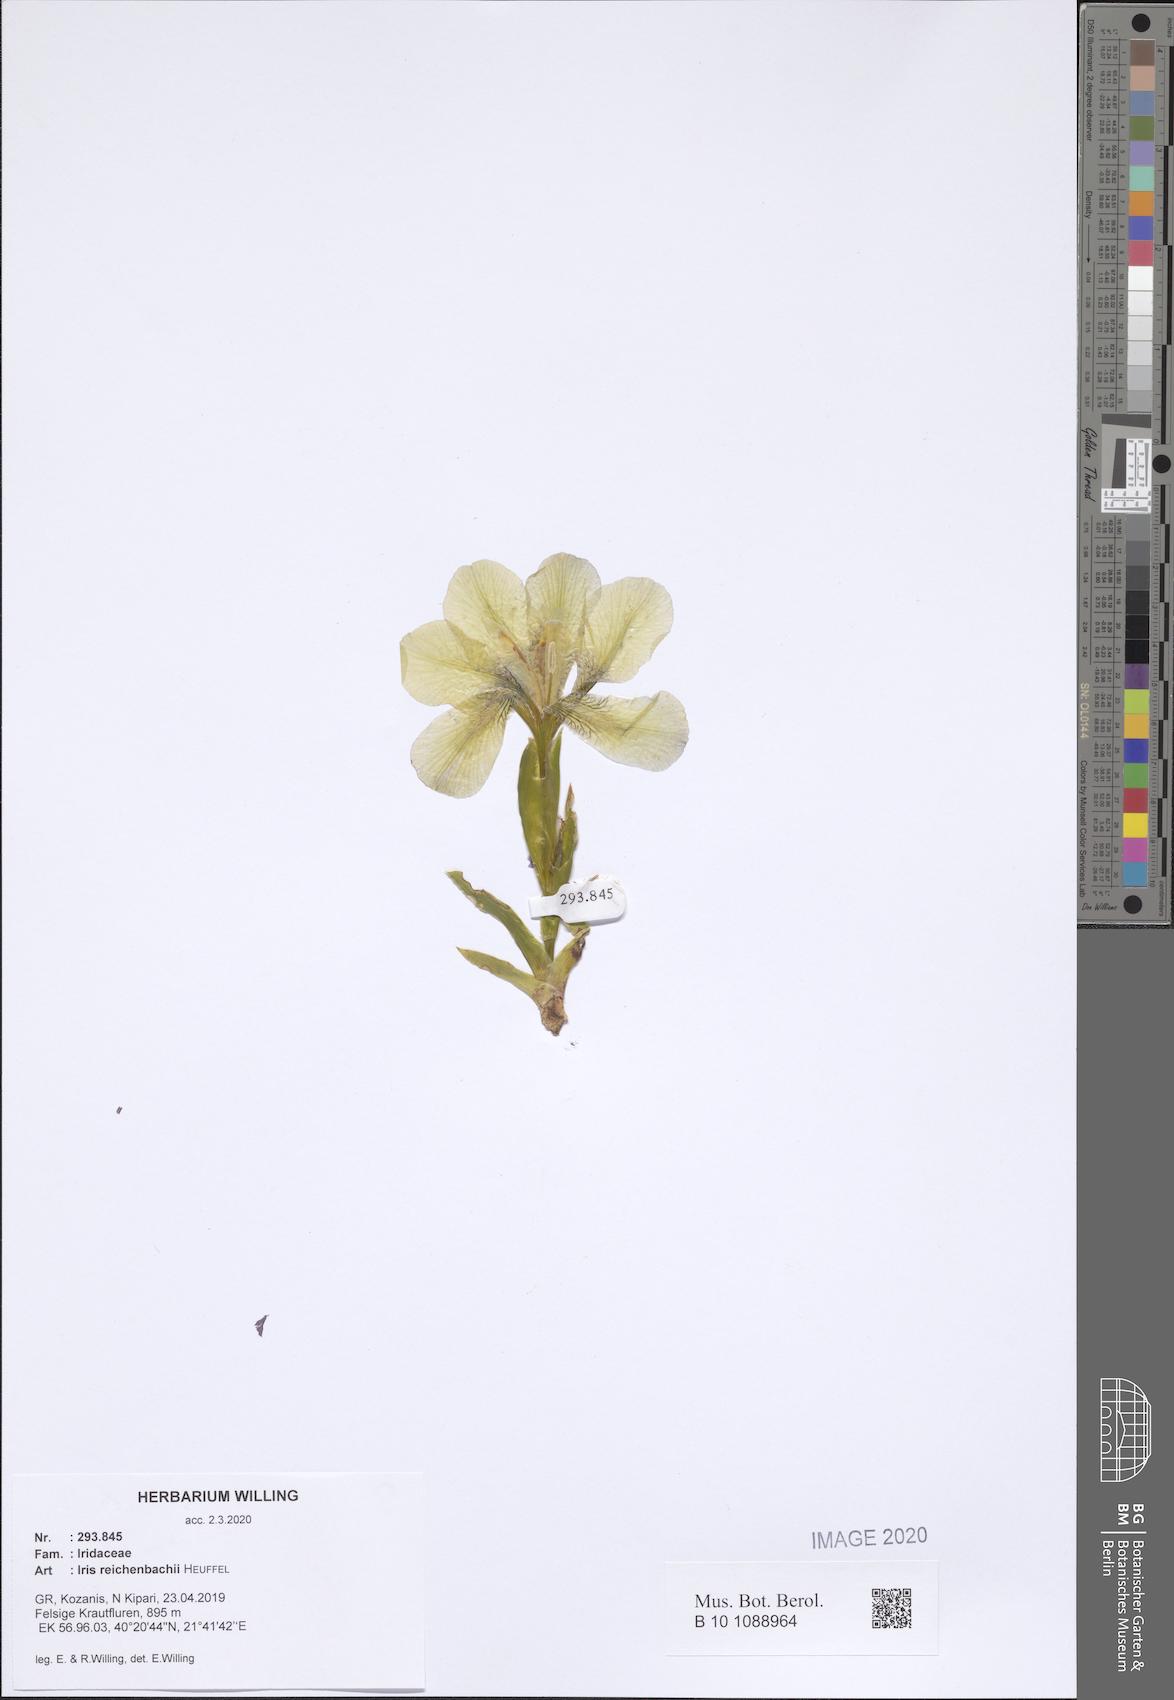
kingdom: Plantae
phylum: Tracheophyta
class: Liliopsida
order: Asparagales
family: Iridaceae
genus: Iris
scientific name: Iris reichenbachii
